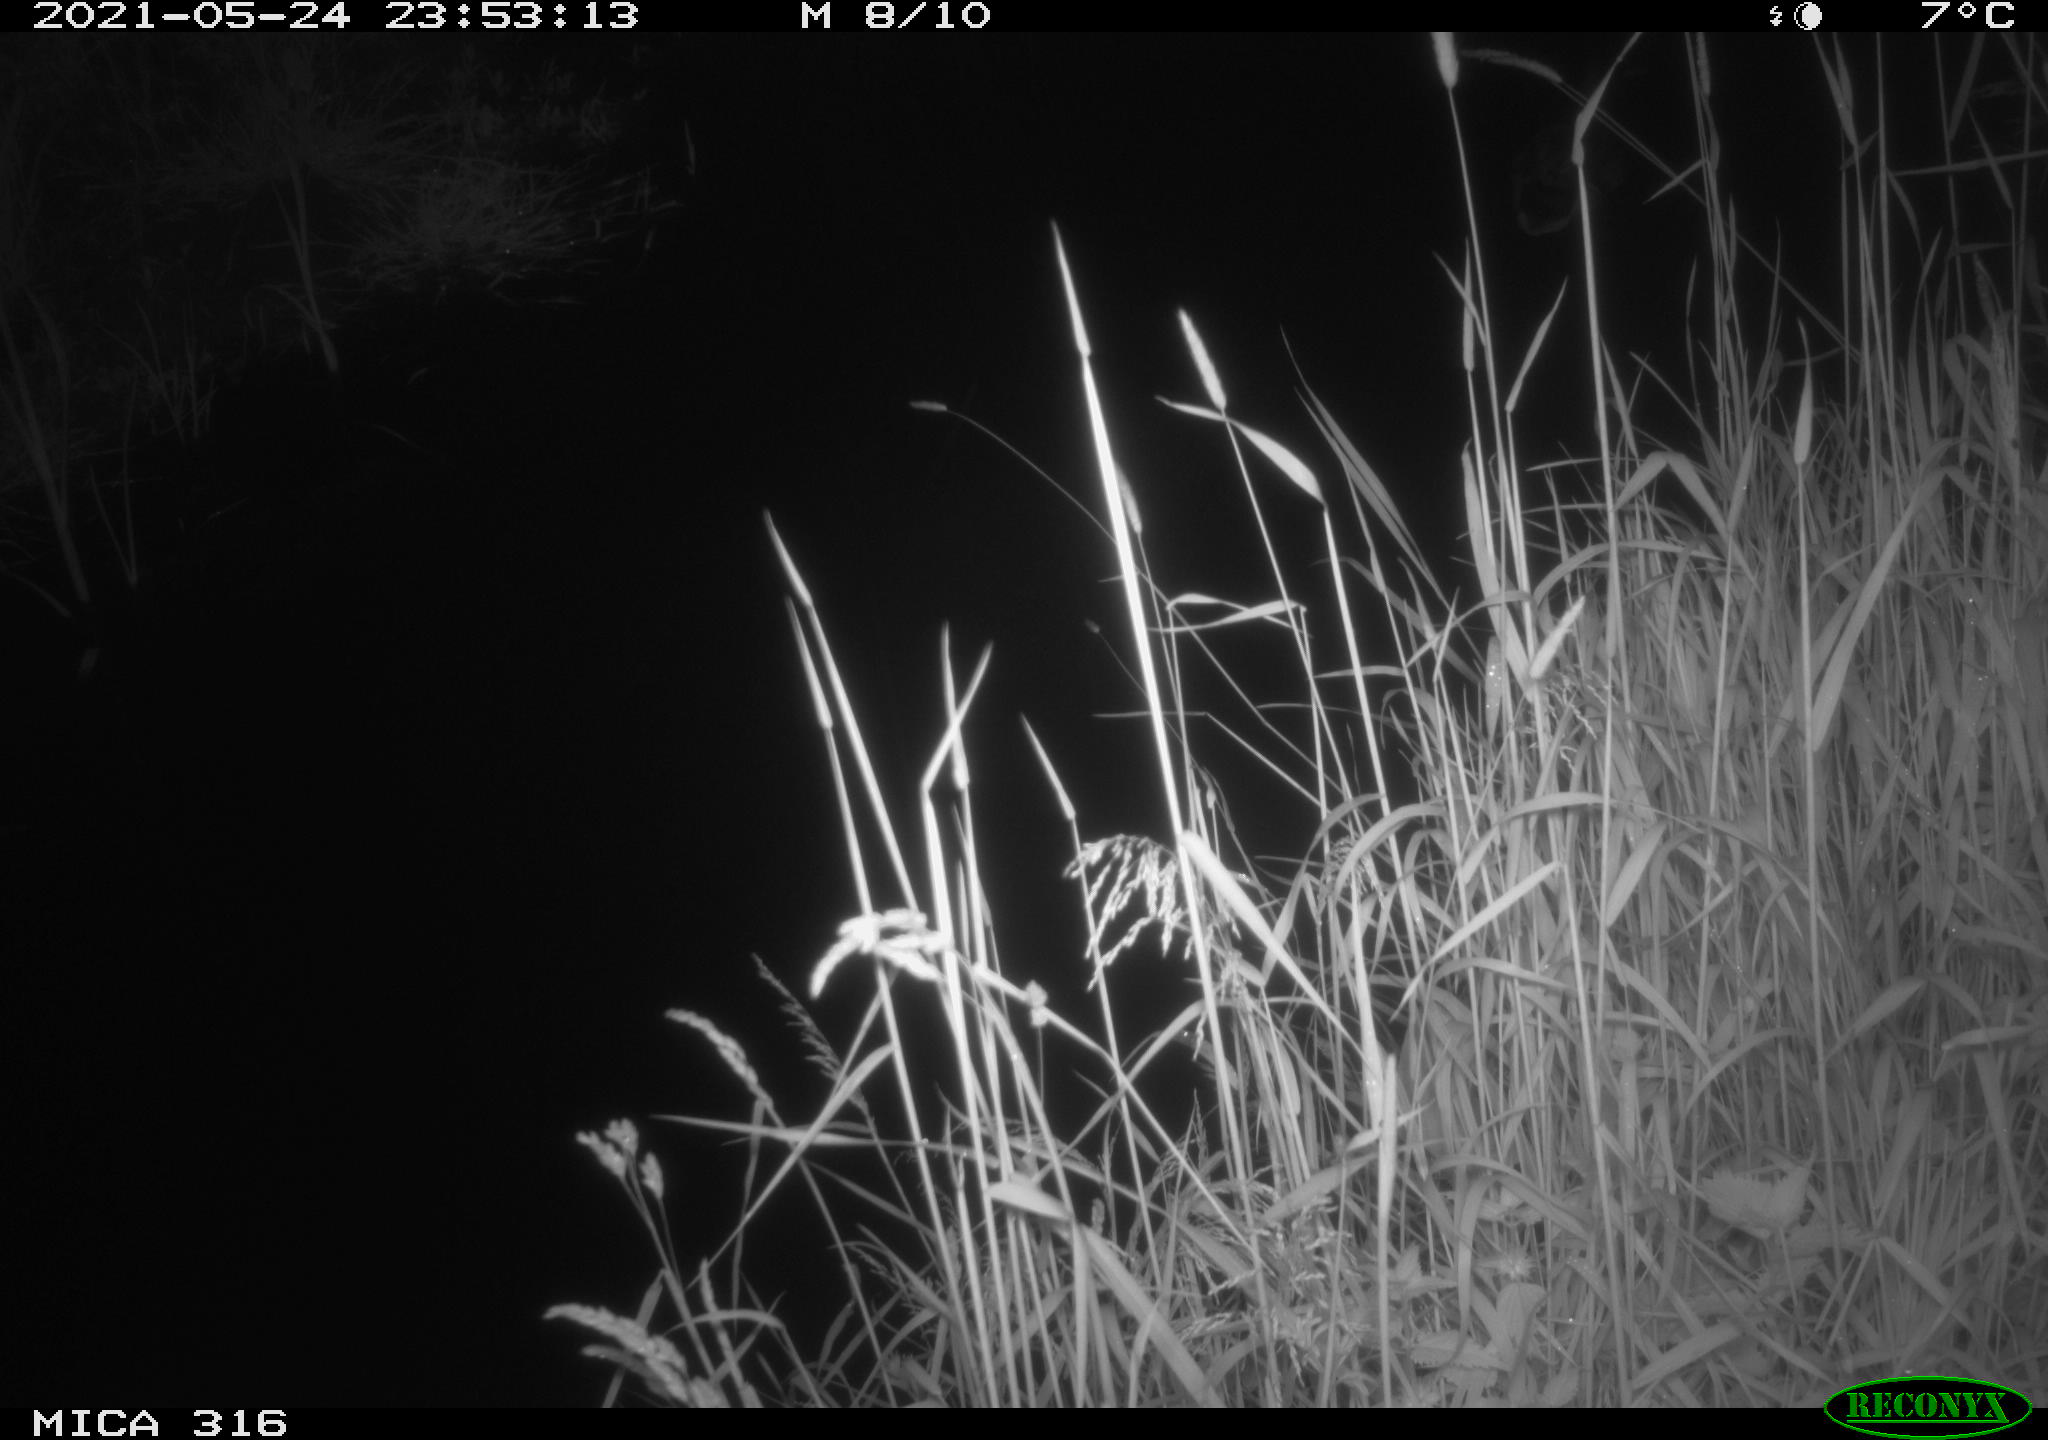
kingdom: Animalia
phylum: Chordata
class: Aves
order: Anseriformes
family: Anatidae
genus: Anas
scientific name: Anas platyrhynchos
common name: Mallard
